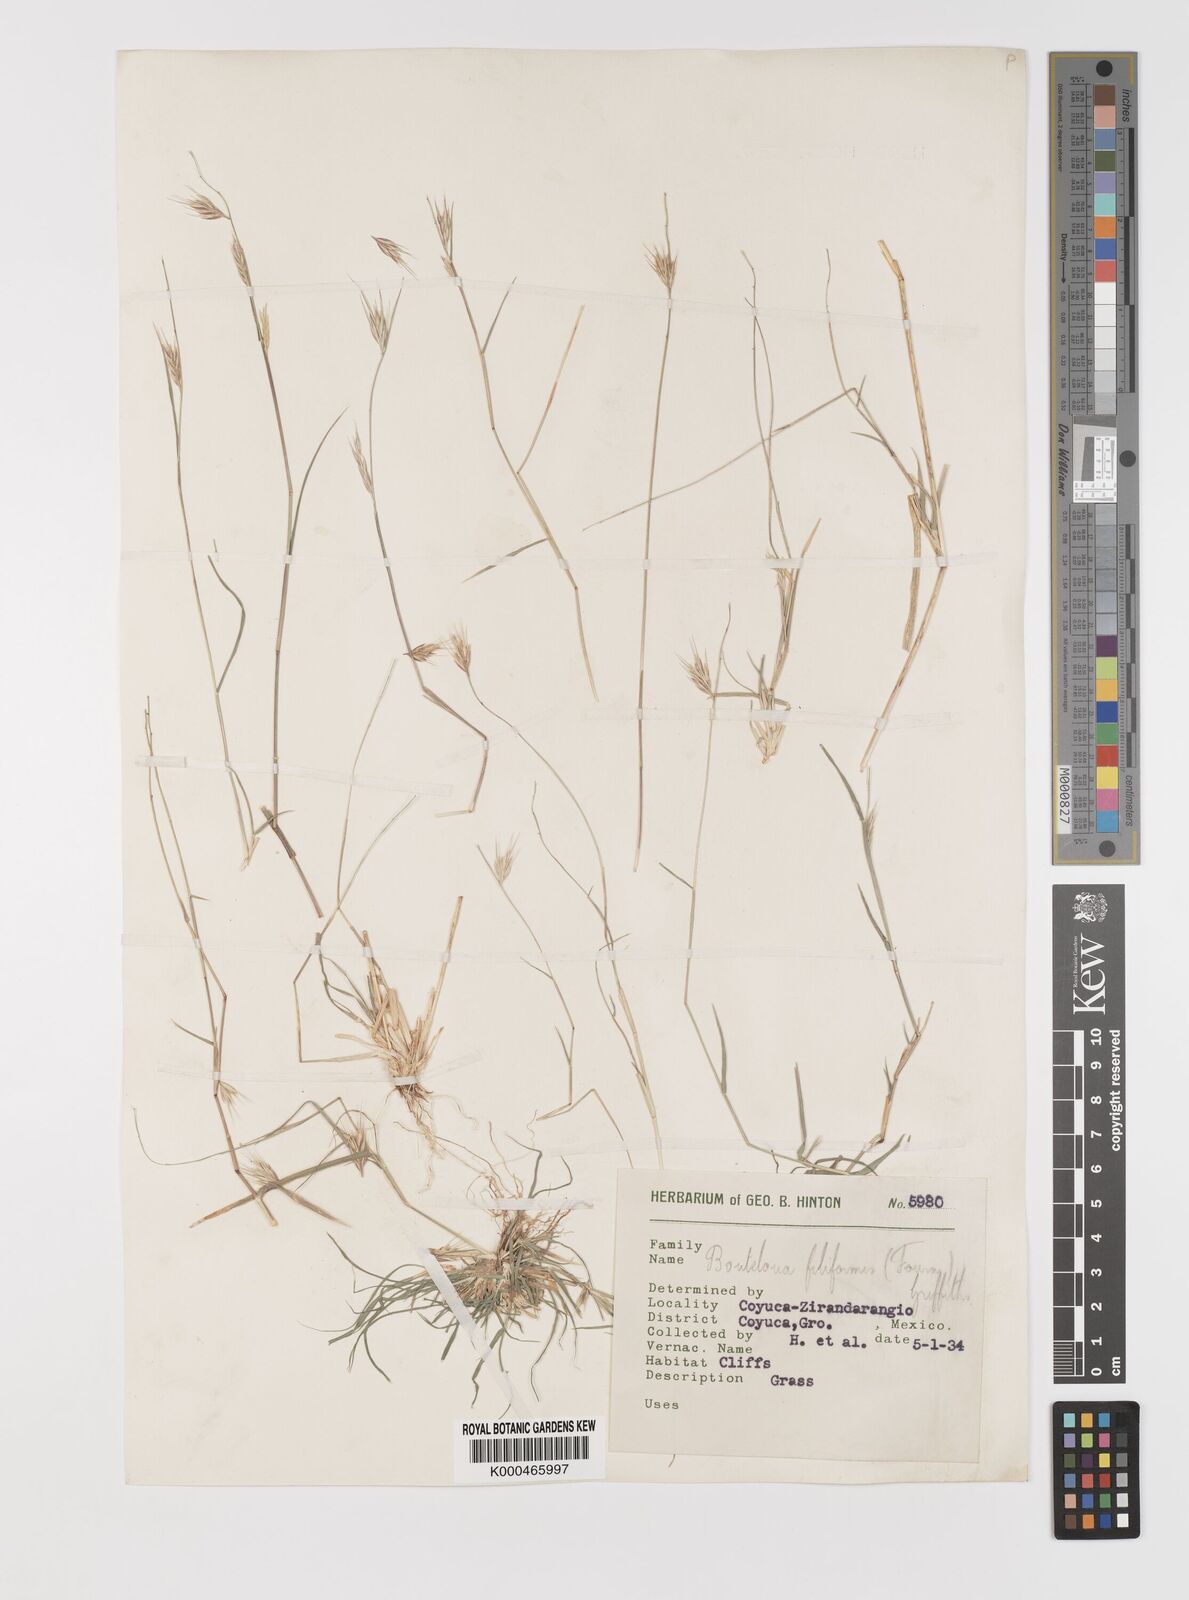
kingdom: Plantae
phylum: Tracheophyta
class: Liliopsida
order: Poales
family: Poaceae
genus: Bouteloua
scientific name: Bouteloua repens
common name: Slender grama
